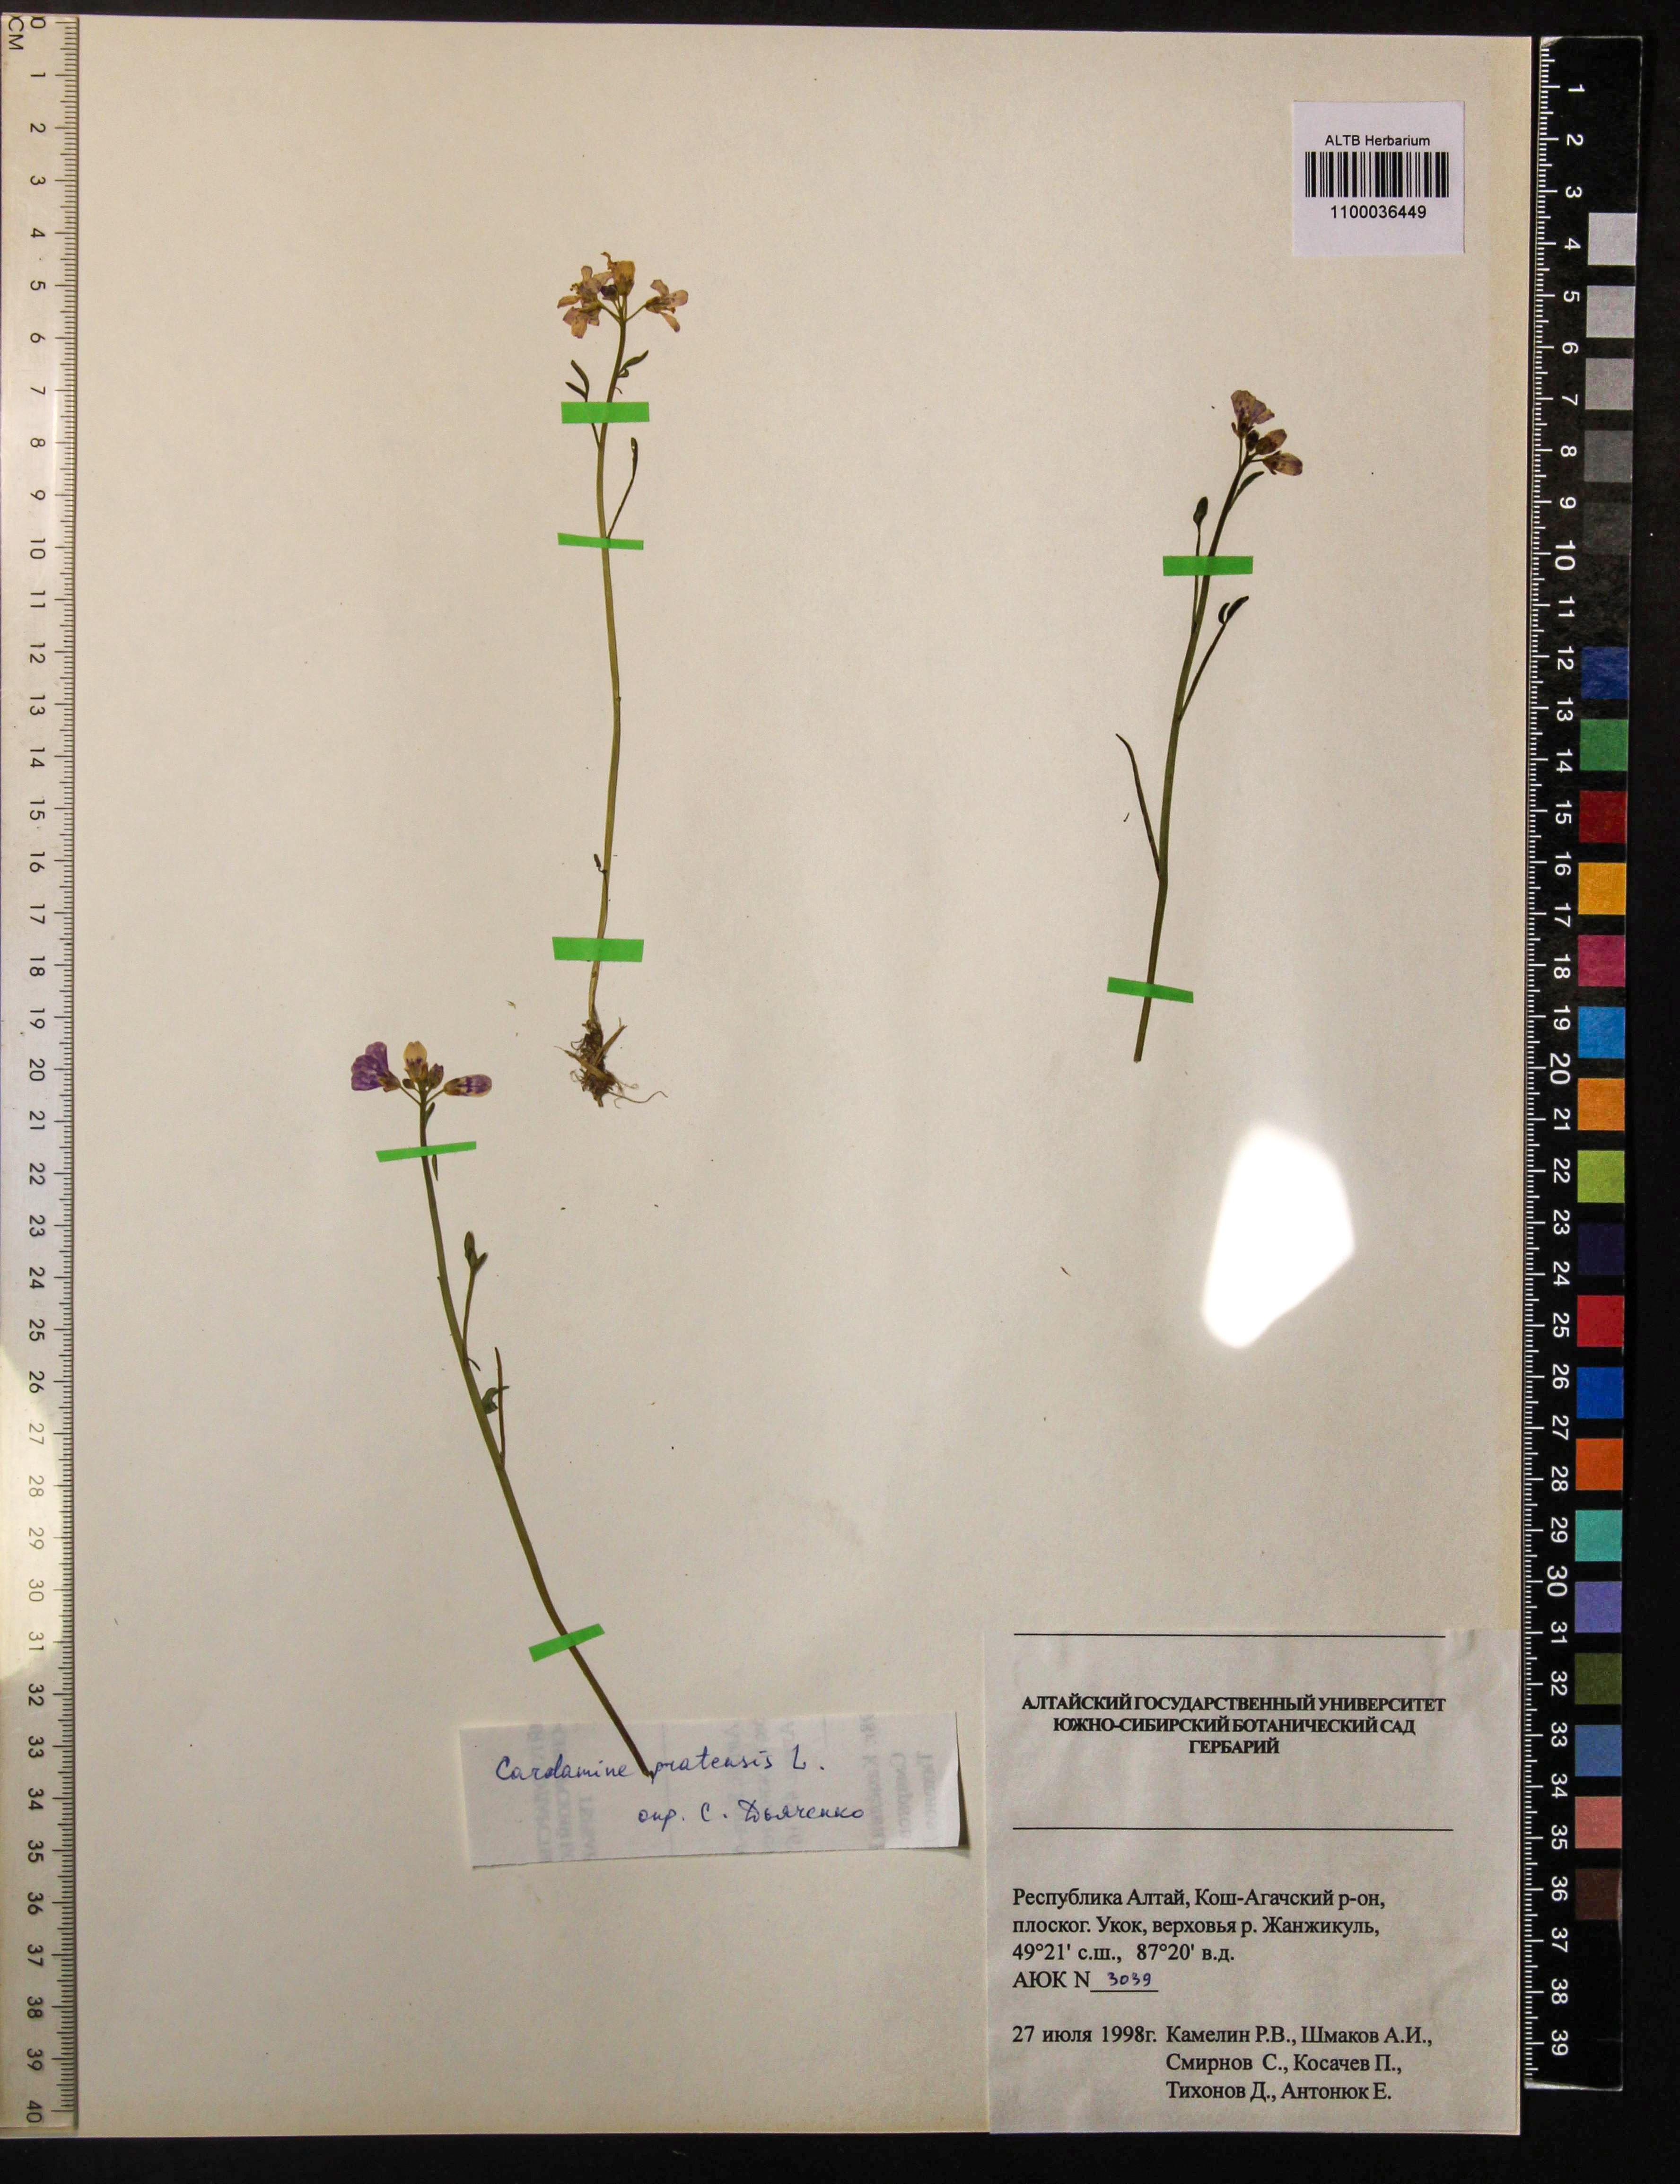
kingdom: Plantae
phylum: Tracheophyta
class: Magnoliopsida
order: Brassicales
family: Brassicaceae
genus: Cardamine
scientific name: Cardamine pratensis
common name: Cuckoo flower
